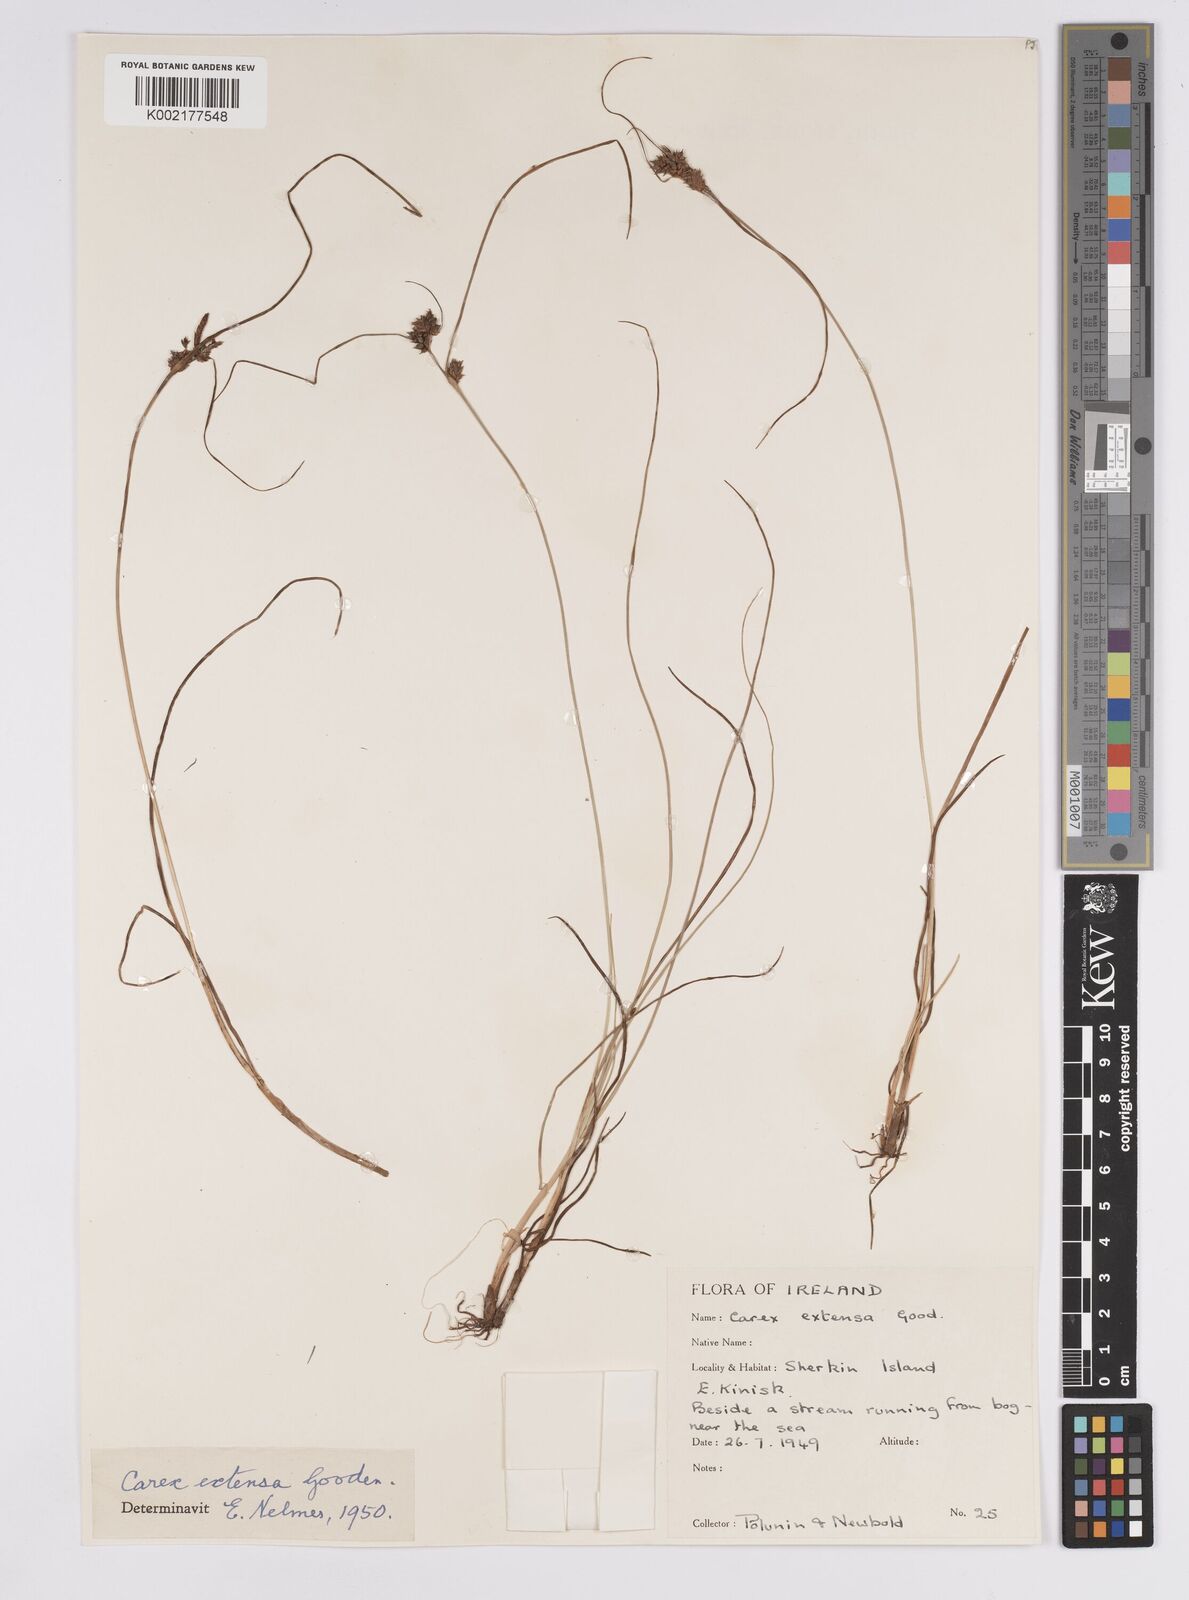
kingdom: Plantae
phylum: Tracheophyta
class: Liliopsida
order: Poales
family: Cyperaceae
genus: Carex
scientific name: Carex extensa
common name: Long-bracted sedge
